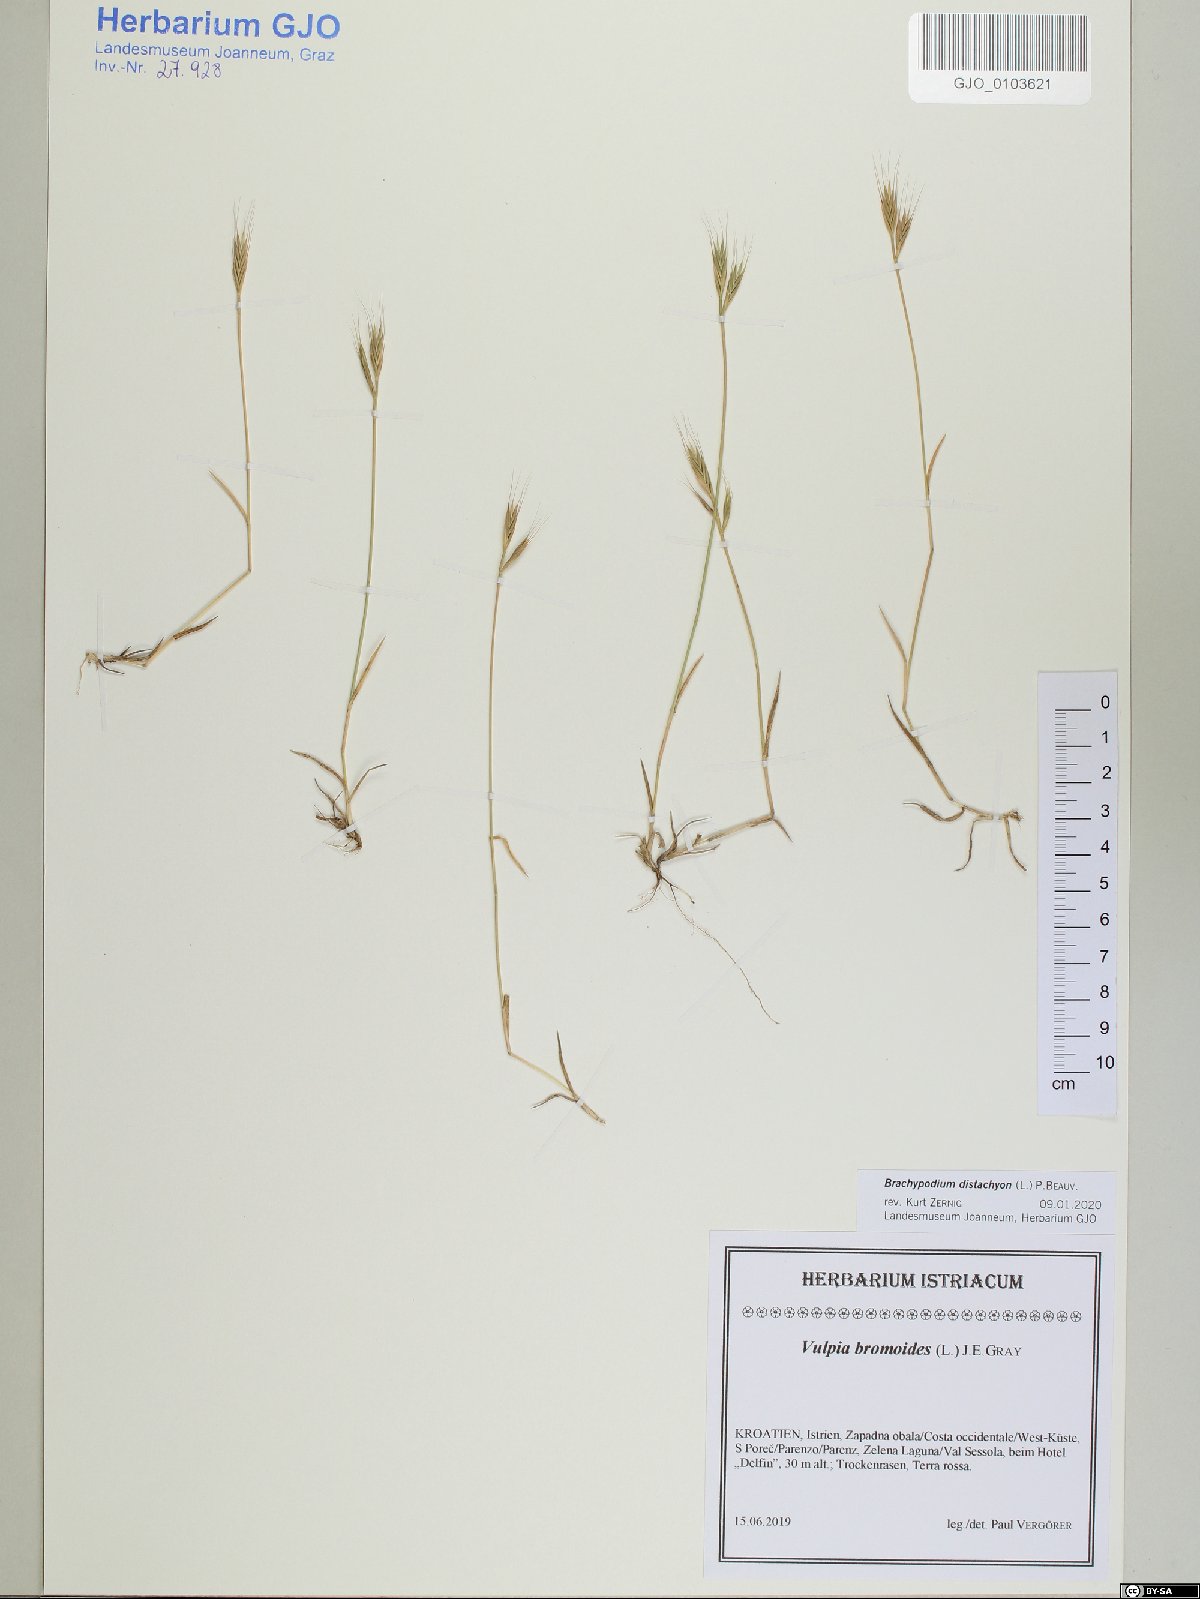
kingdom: Plantae
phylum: Tracheophyta
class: Liliopsida
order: Poales
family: Poaceae
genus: Brachypodium
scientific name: Brachypodium distachyon
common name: Stiff brome
